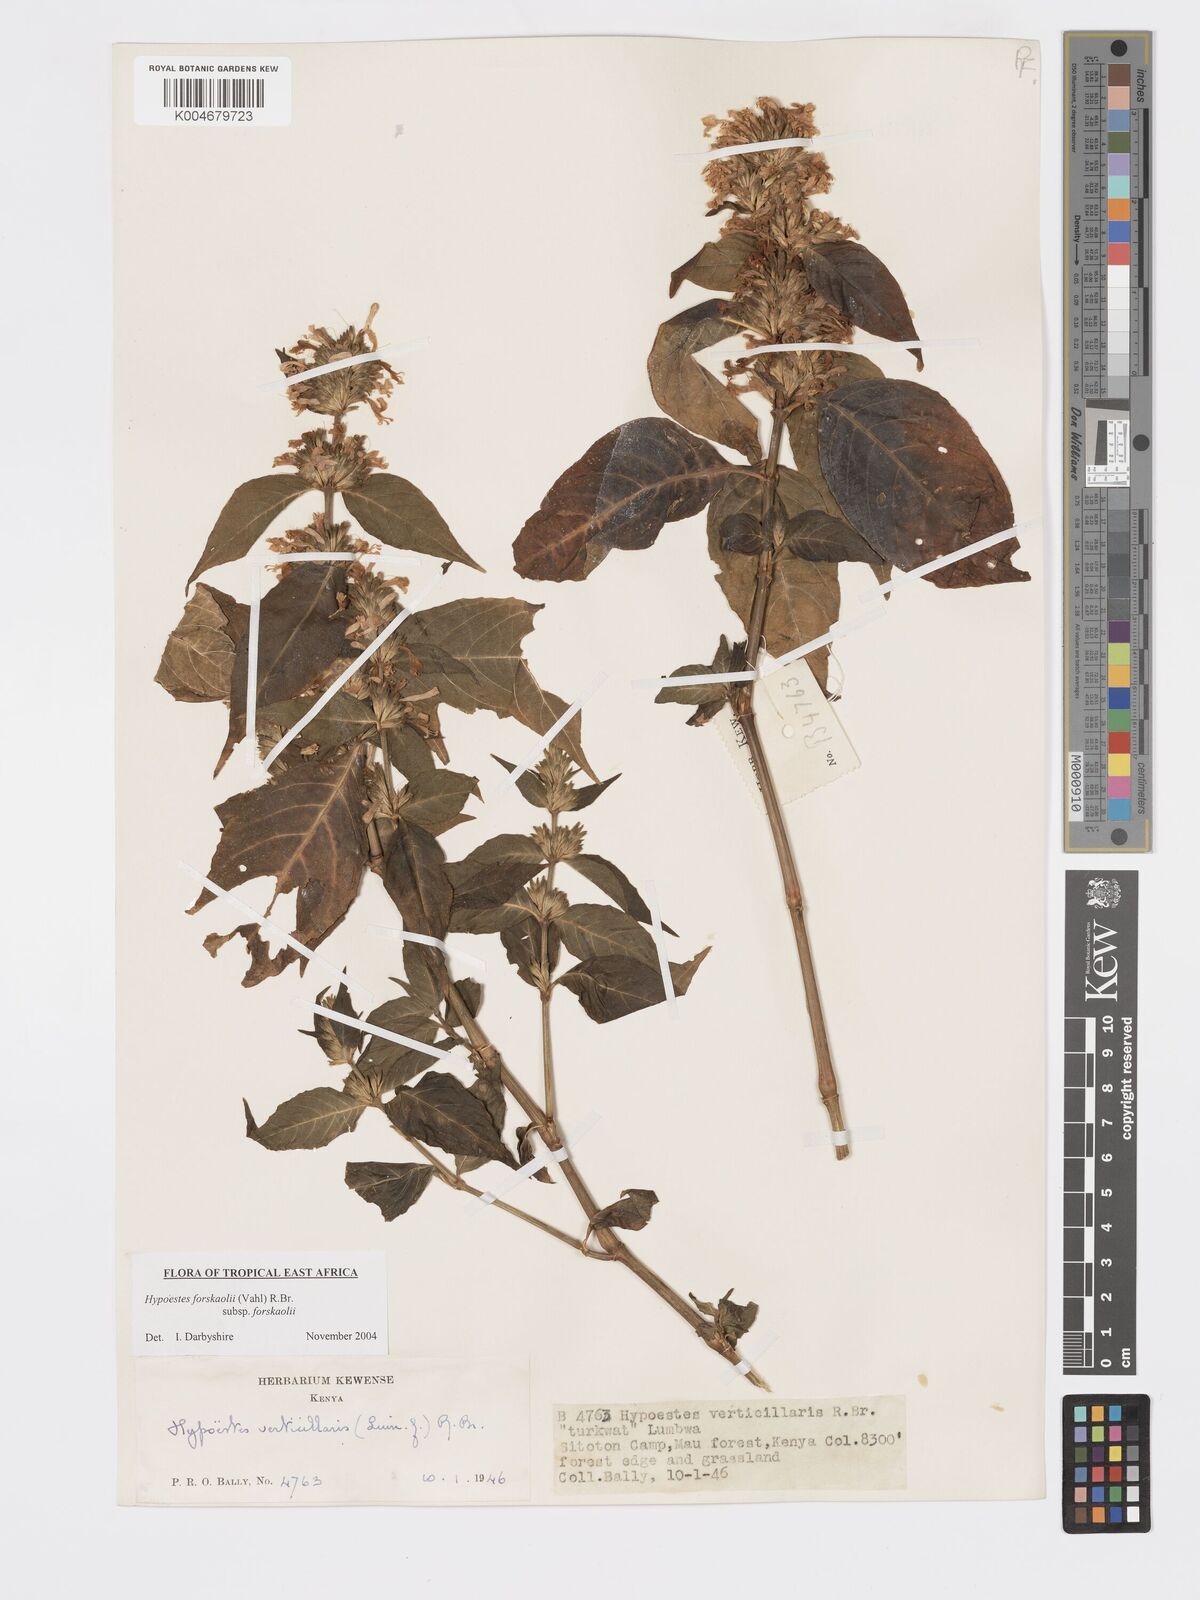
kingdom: Plantae
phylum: Tracheophyta
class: Magnoliopsida
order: Lamiales
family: Acanthaceae
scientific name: Acanthaceae
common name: Acanthaceae
